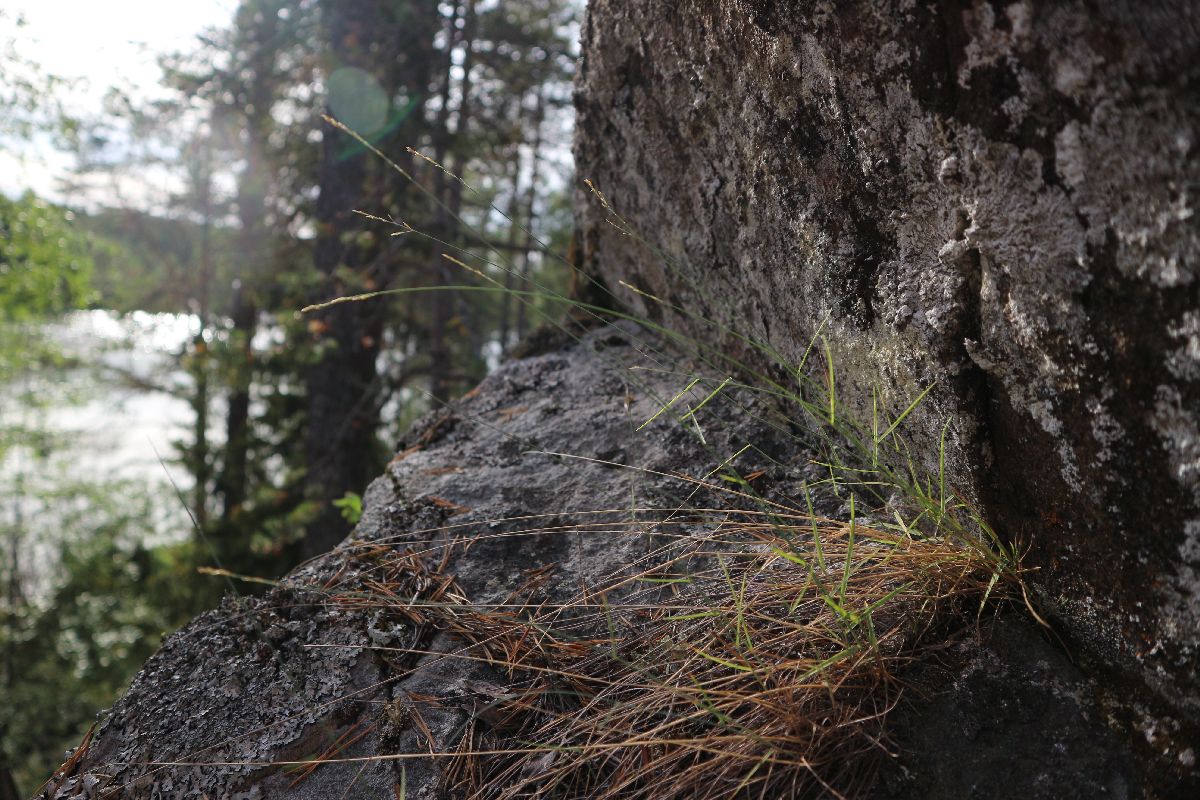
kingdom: Plantae
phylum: Tracheophyta
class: Liliopsida
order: Poales
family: Poaceae
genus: Poa
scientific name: Poa glauca
